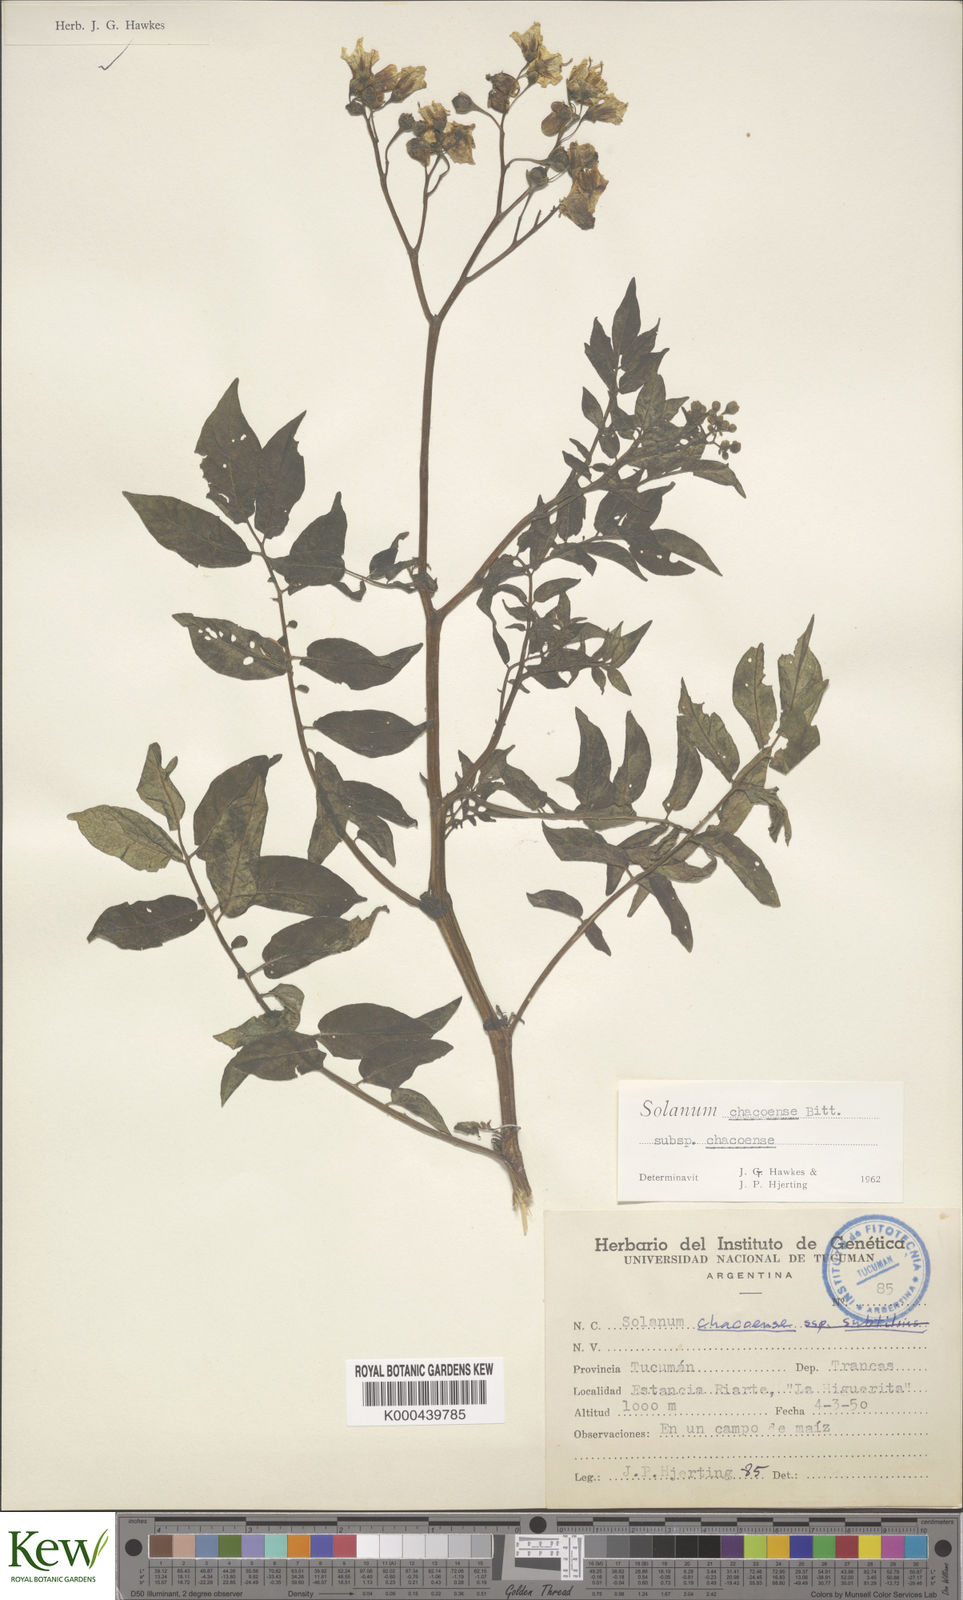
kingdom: Plantae
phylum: Tracheophyta
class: Magnoliopsida
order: Solanales
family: Solanaceae
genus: Solanum
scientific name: Solanum chacoense
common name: Chaco potato
